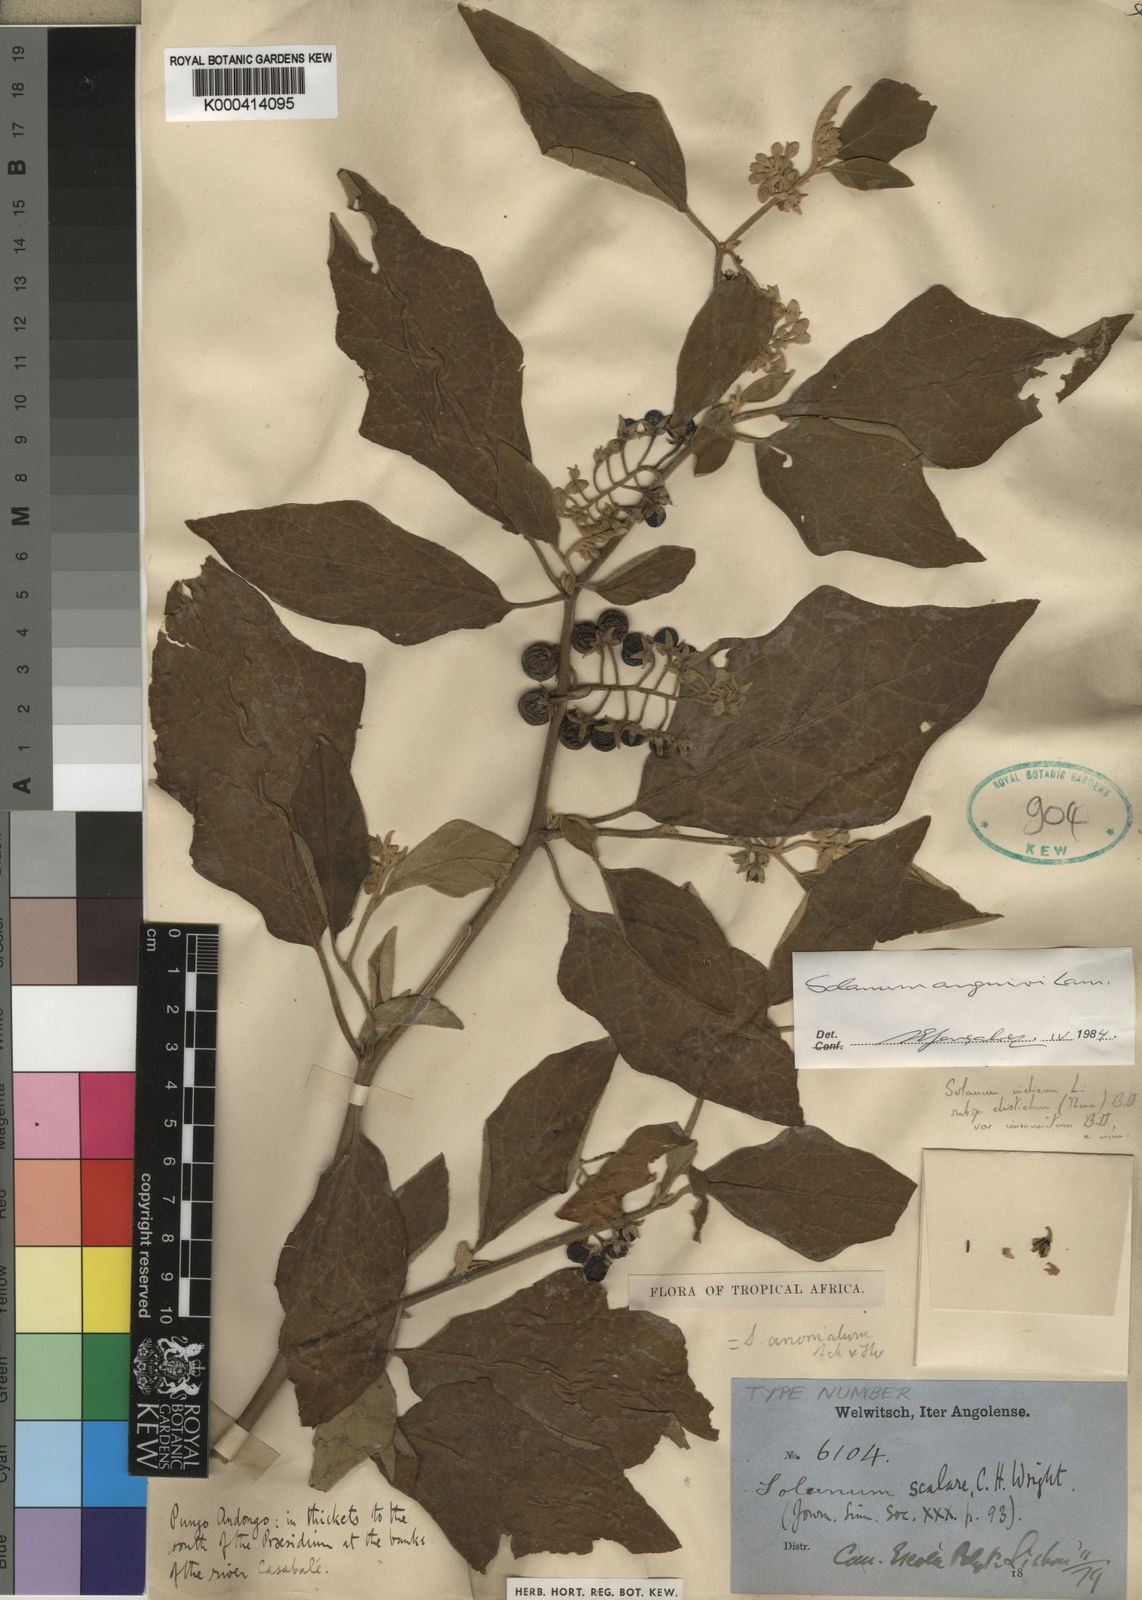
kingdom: Plantae
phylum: Tracheophyta
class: Magnoliopsida
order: Solanales
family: Solanaceae
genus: Solanum
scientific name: Solanum anguivi
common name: Forest bitterberry
